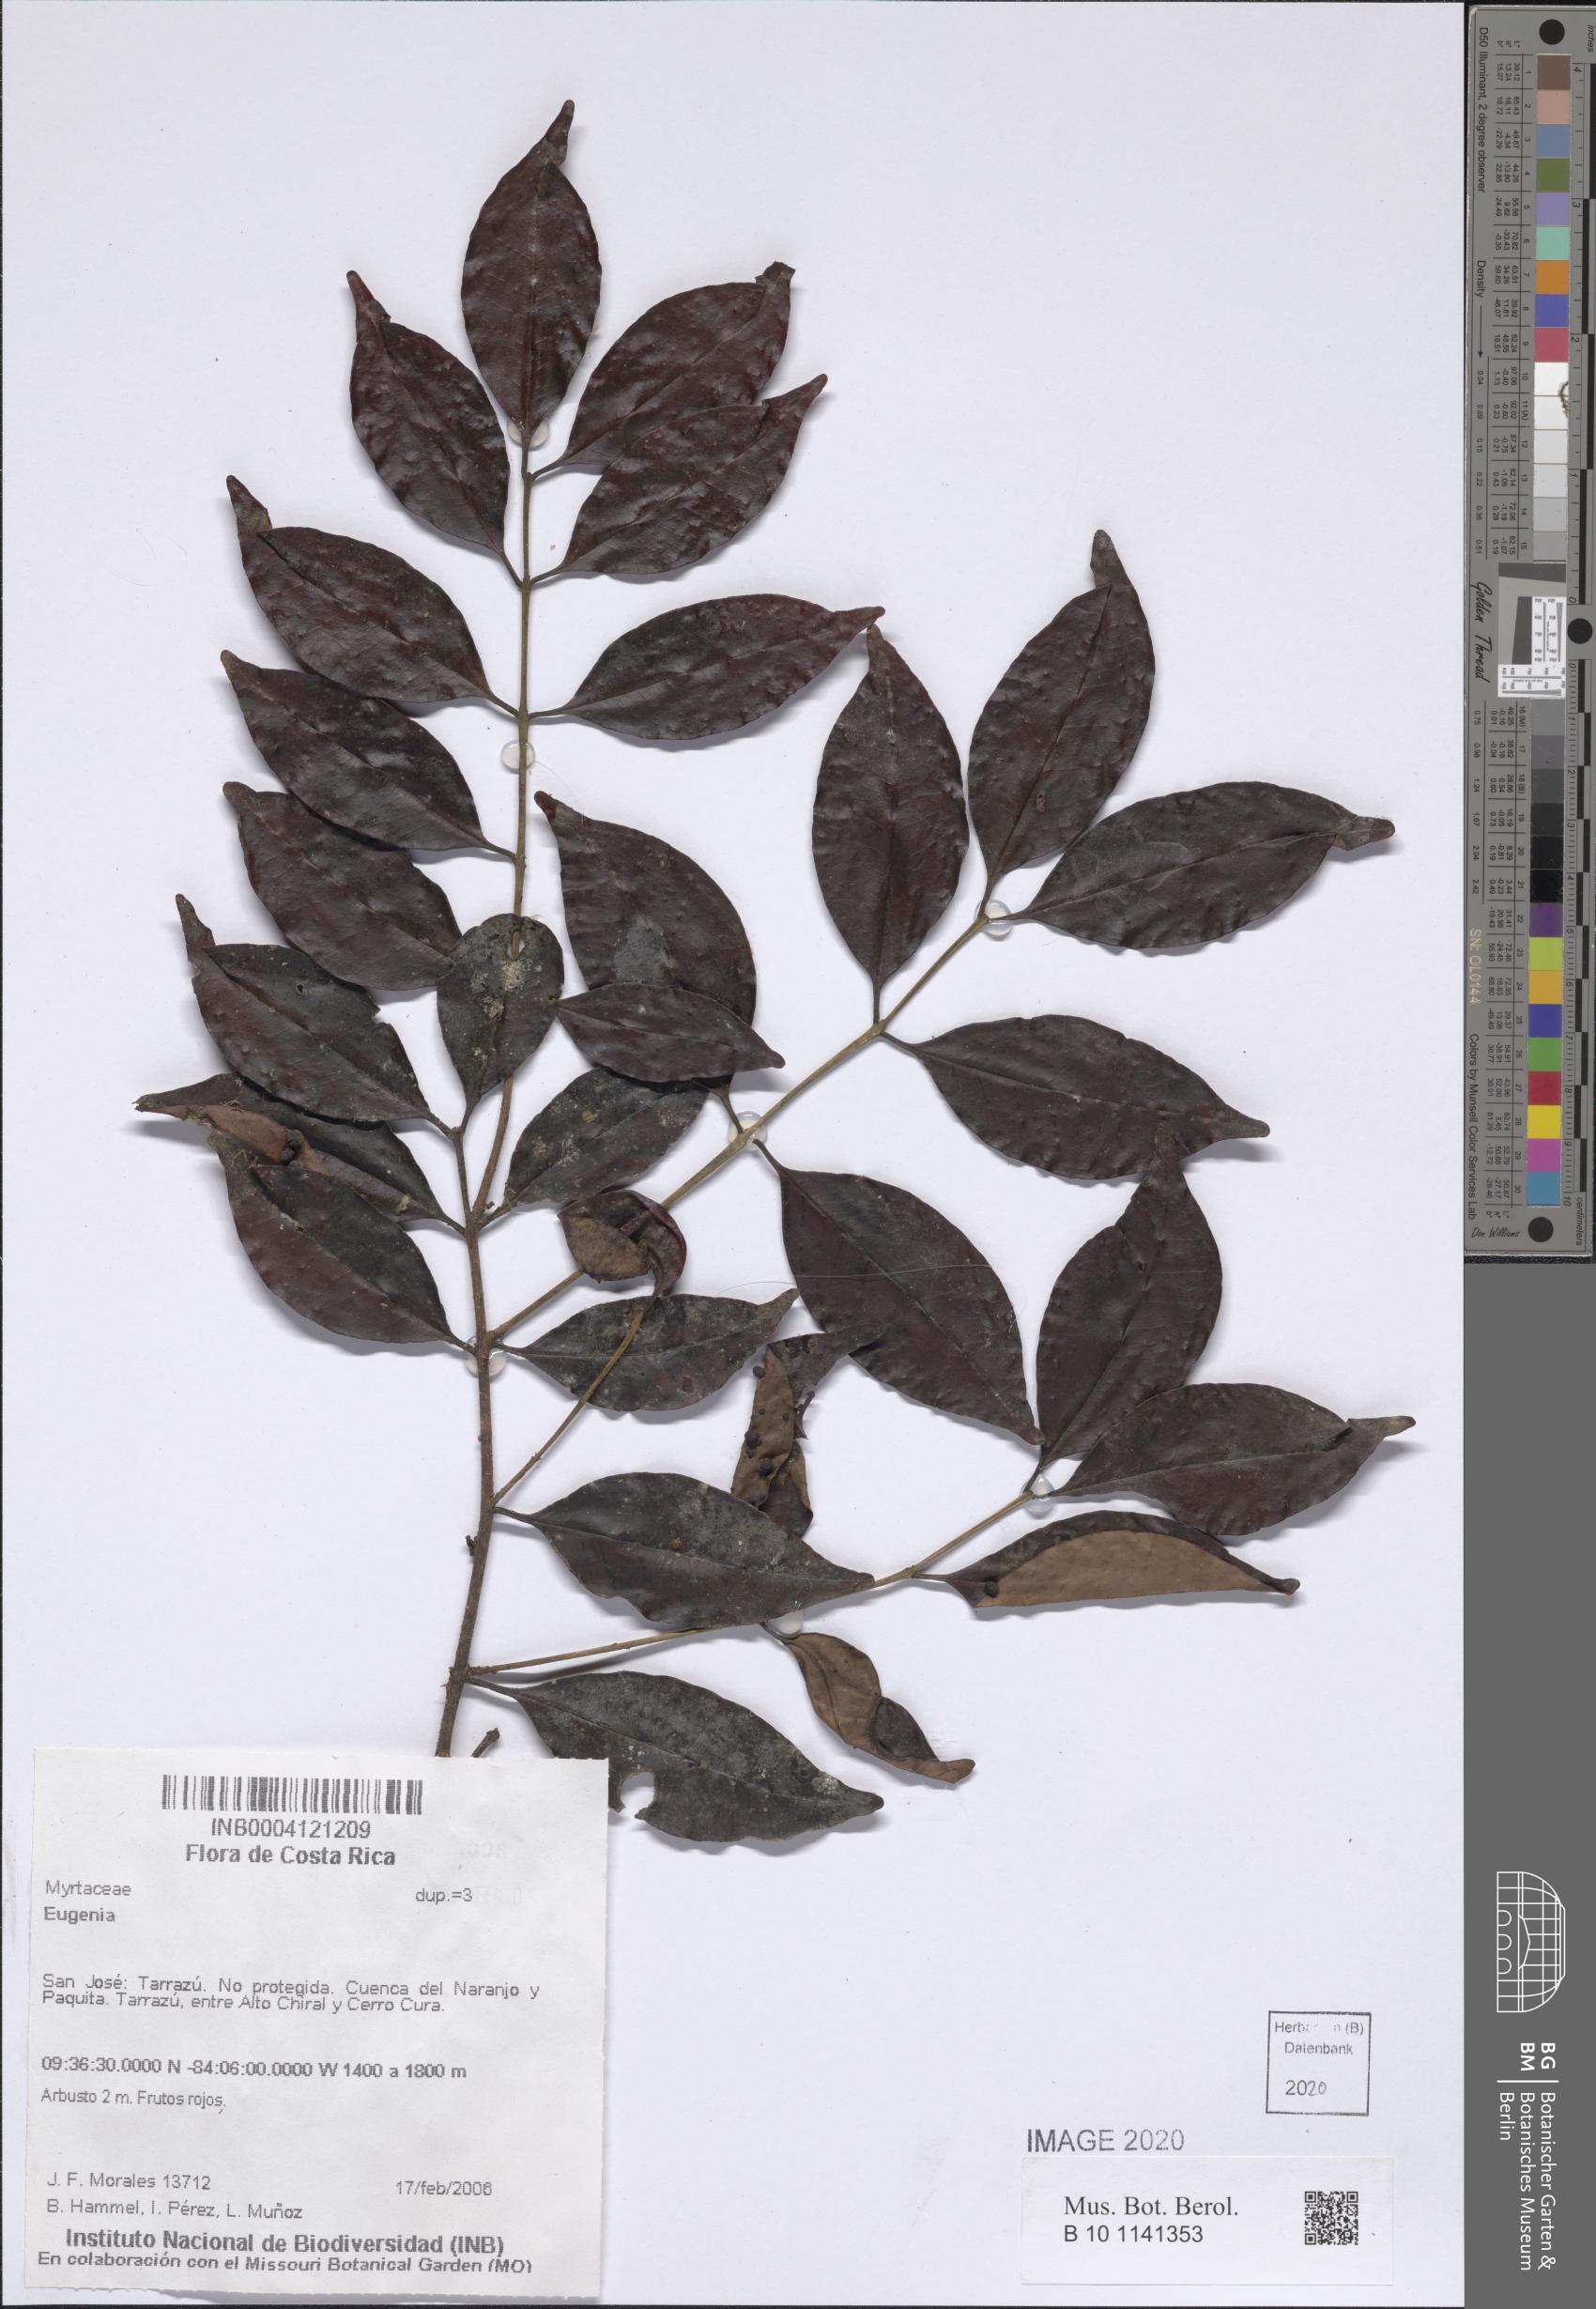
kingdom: Plantae
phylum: Tracheophyta
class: Magnoliopsida
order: Myrtales
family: Myrtaceae
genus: Eugenia
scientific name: Eugenia
